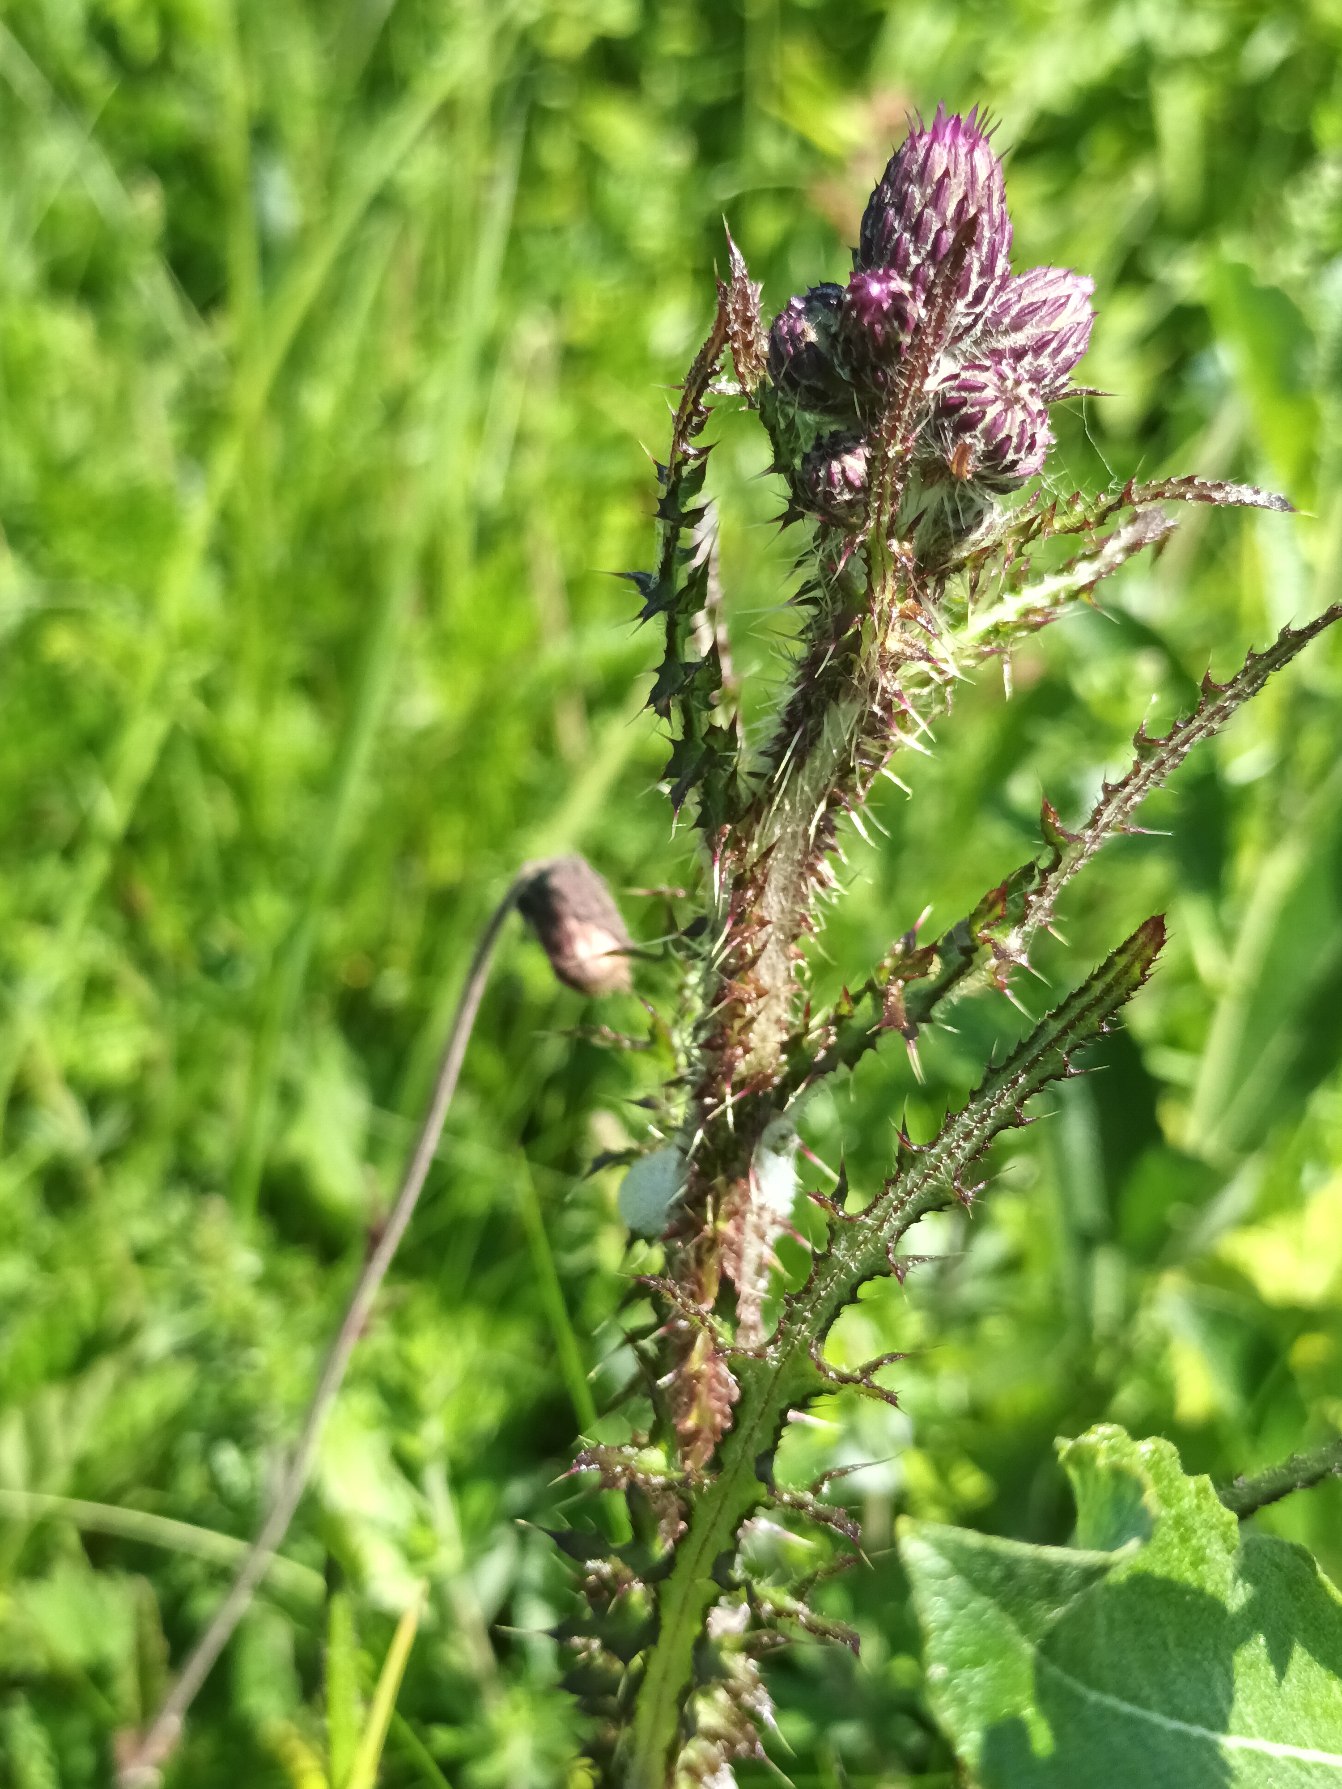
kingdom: Plantae
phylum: Tracheophyta
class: Magnoliopsida
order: Asterales
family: Asteraceae
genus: Cirsium
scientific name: Cirsium palustre
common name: Kær-tidsel
